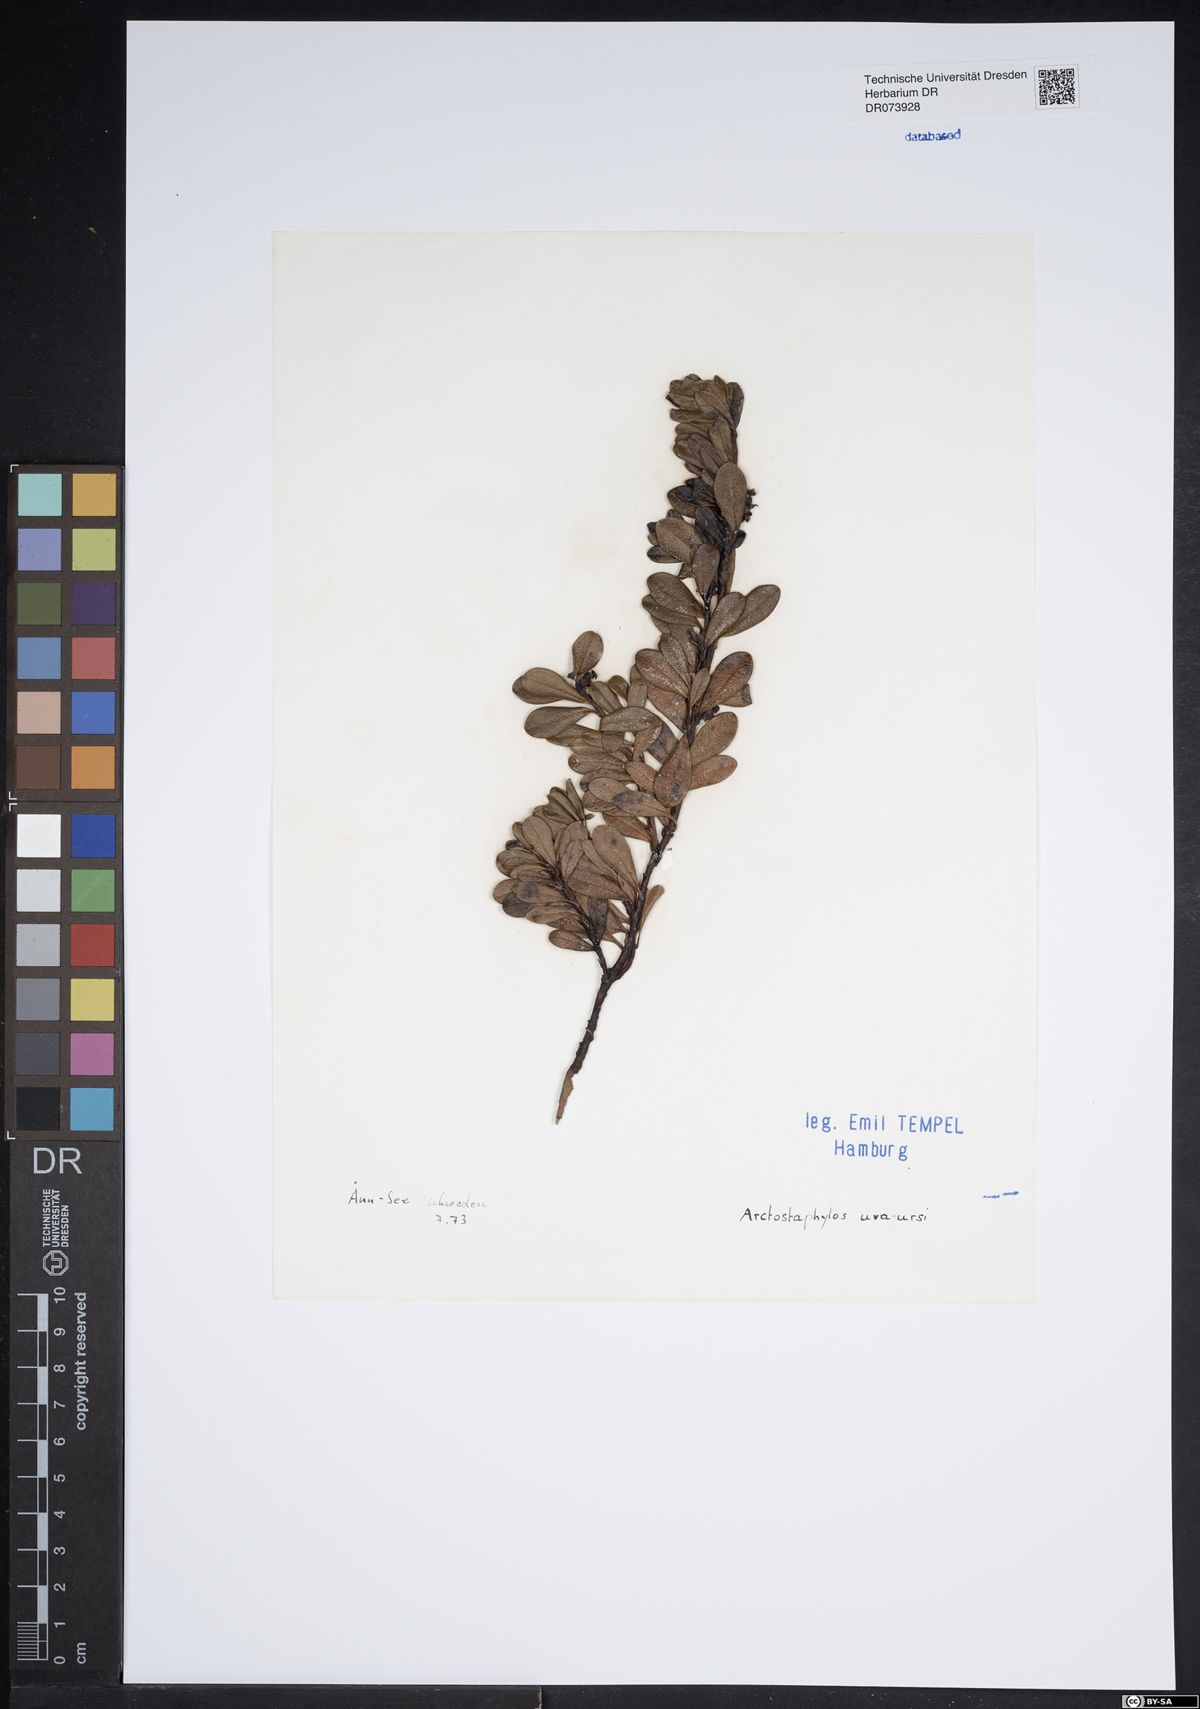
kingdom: Plantae
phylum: Tracheophyta
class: Magnoliopsida
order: Ericales
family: Ericaceae
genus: Arctostaphylos
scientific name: Arctostaphylos uva-ursi
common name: Bearberry
